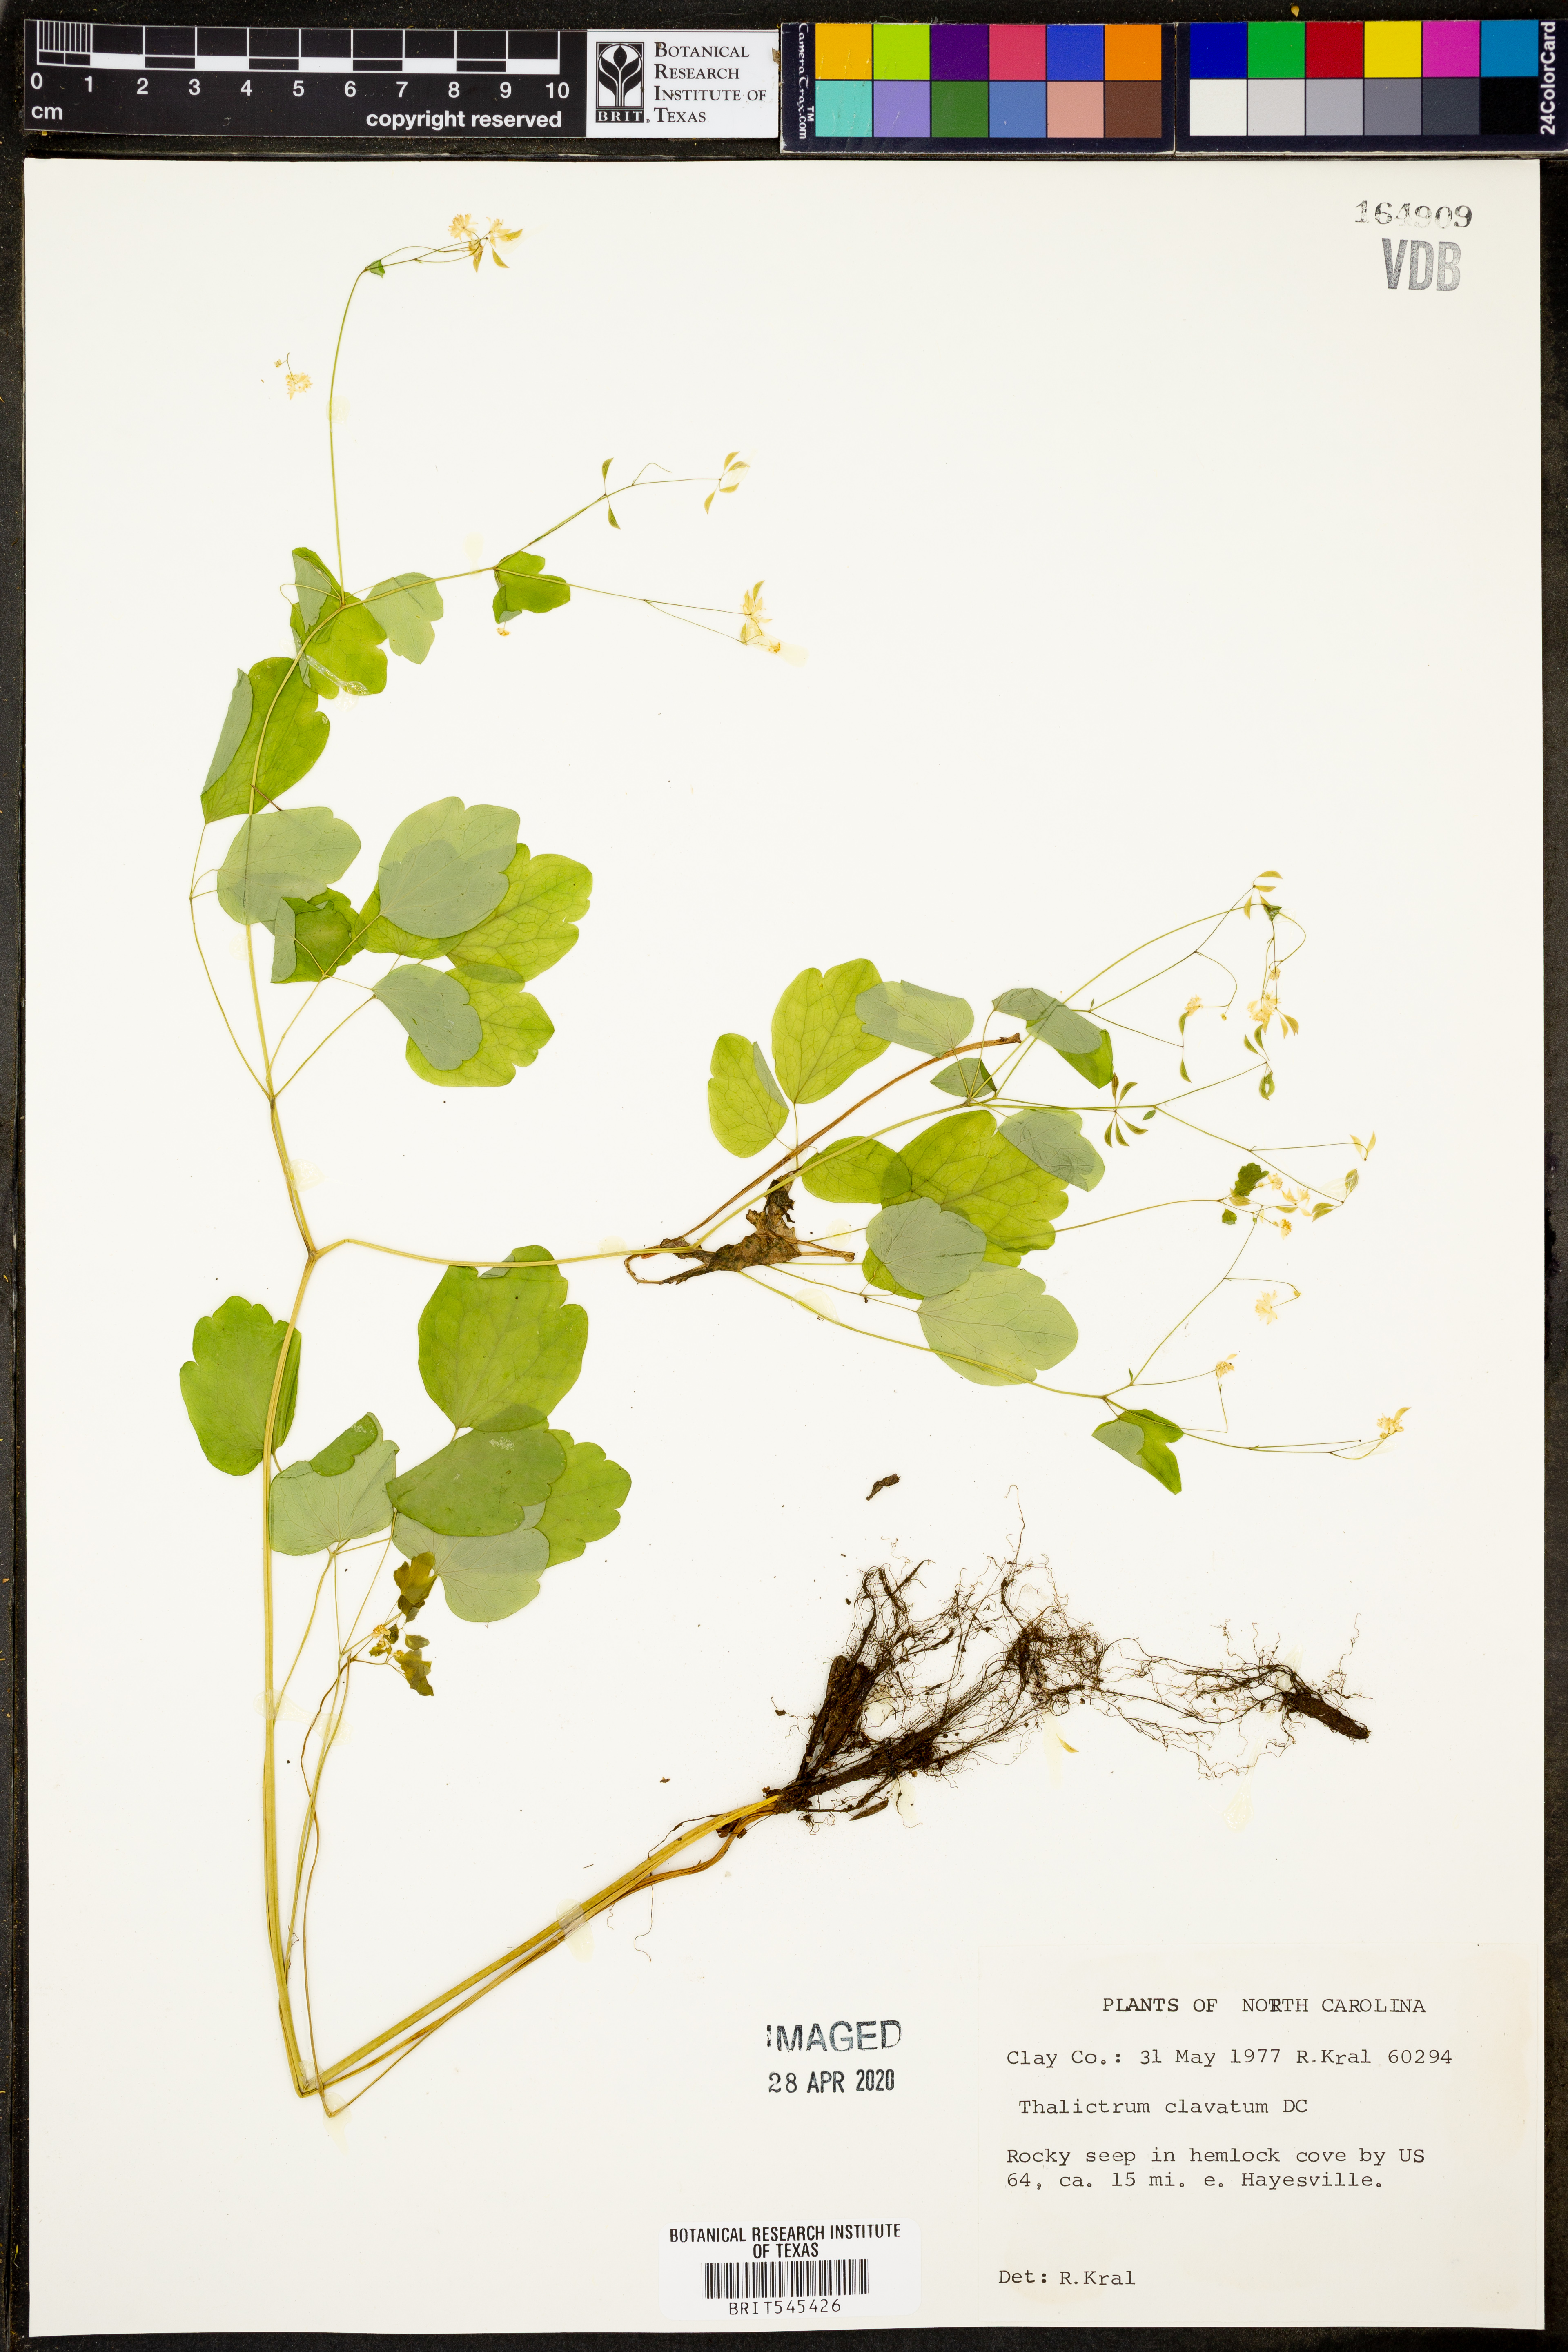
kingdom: Plantae
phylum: Tracheophyta
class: Magnoliopsida
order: Ranunculales
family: Ranunculaceae
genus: Thalictrum
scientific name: Thalictrum clavatum
